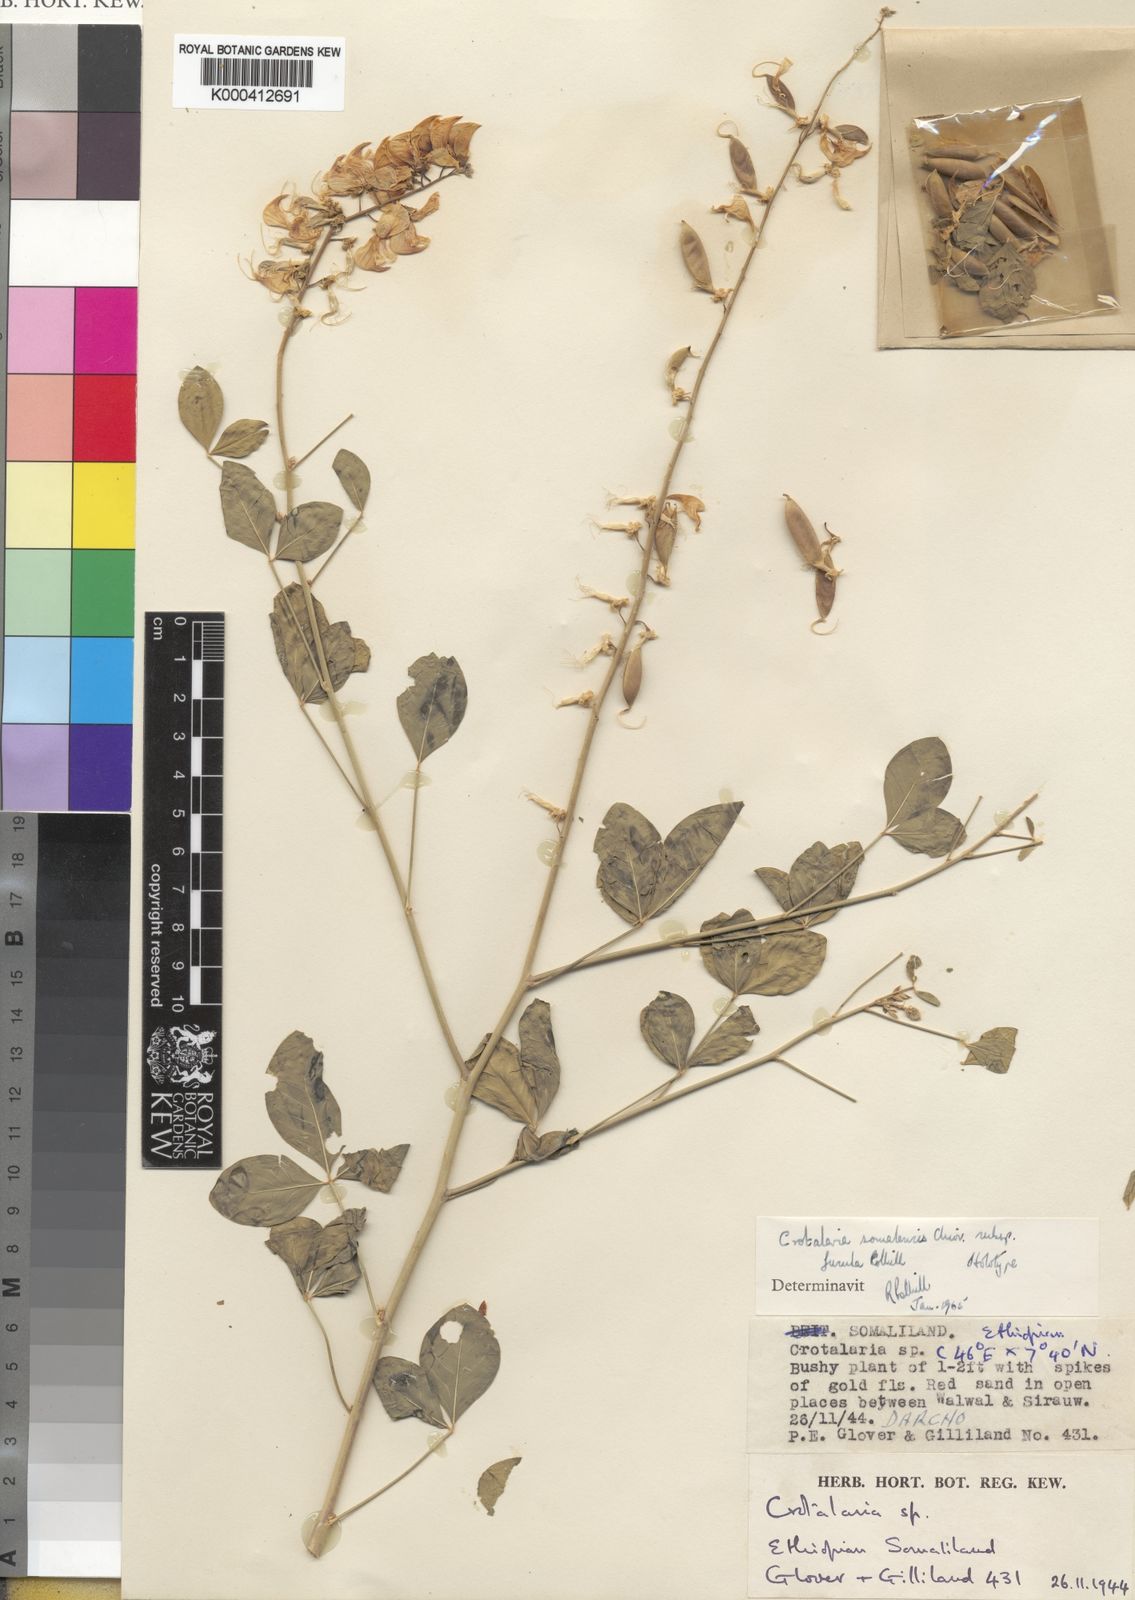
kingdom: Plantae
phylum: Tracheophyta
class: Magnoliopsida
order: Fabales
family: Fabaceae
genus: Crotalaria
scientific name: Crotalaria somalensis
